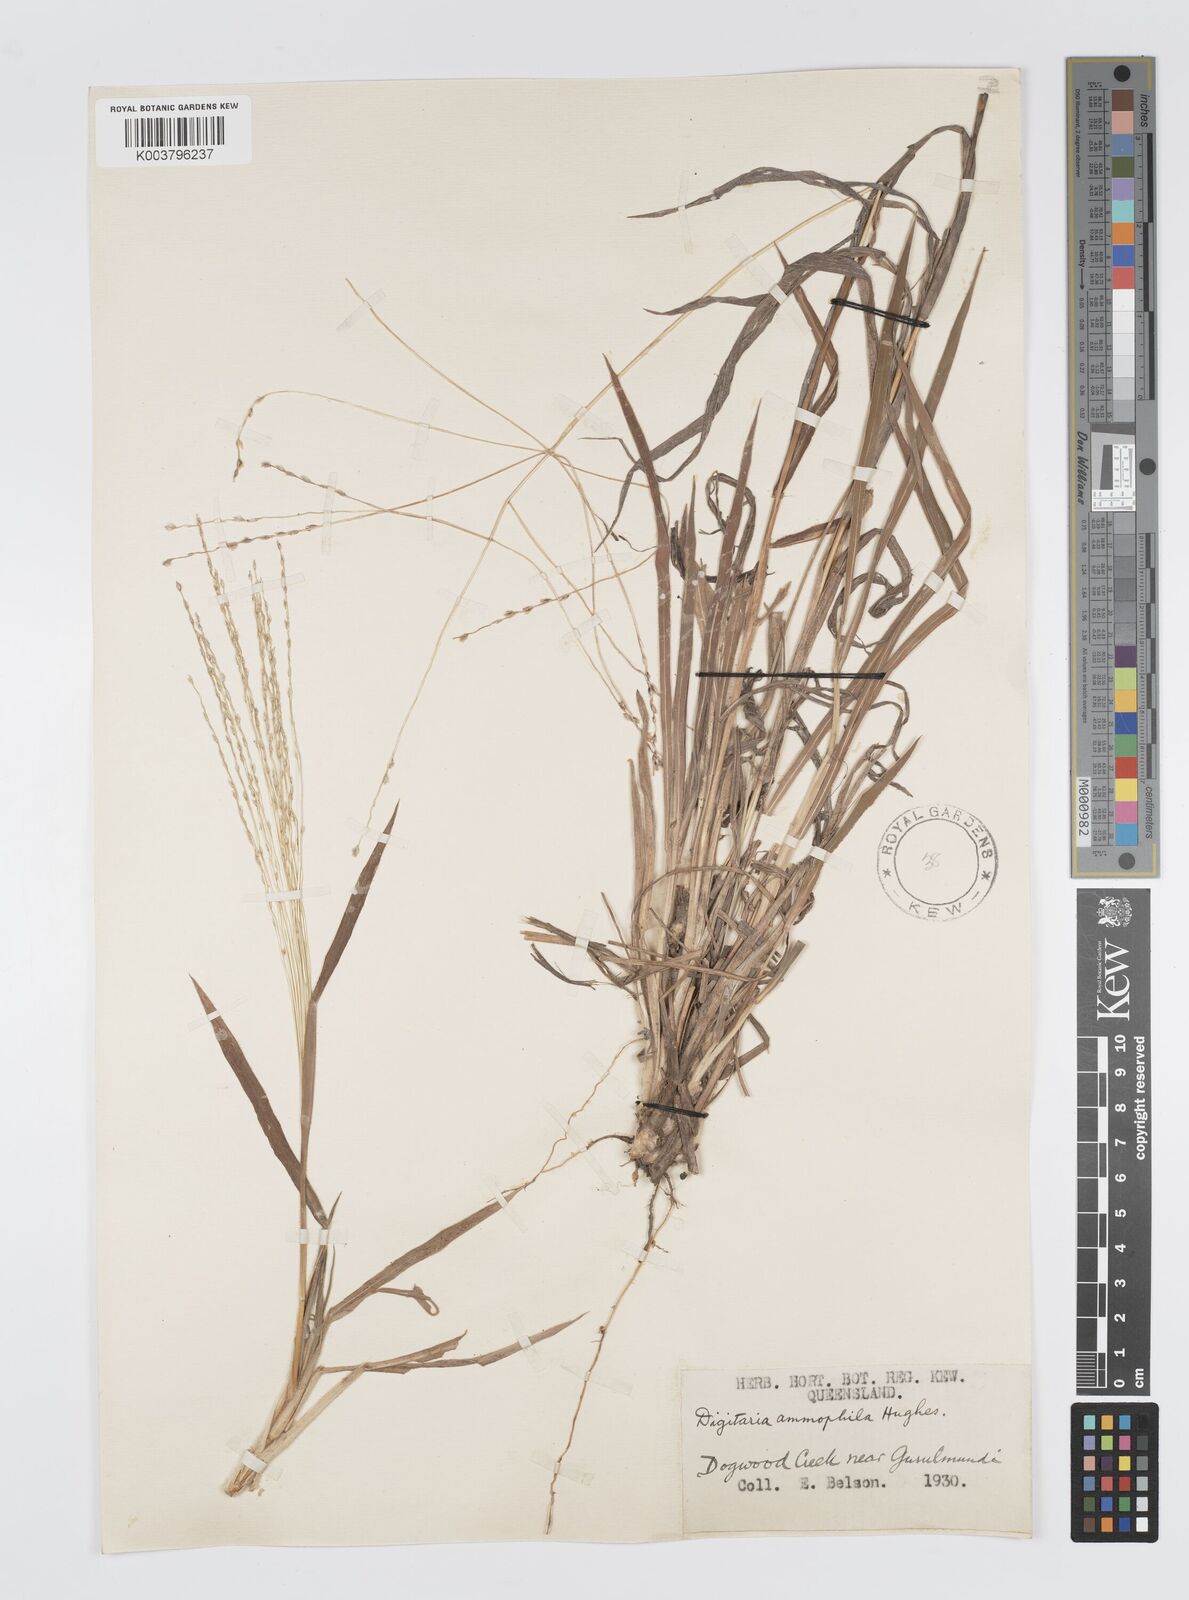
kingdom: Plantae
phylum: Tracheophyta
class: Liliopsida
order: Poales
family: Poaceae
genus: Digitaria
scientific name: Digitaria ammophila
